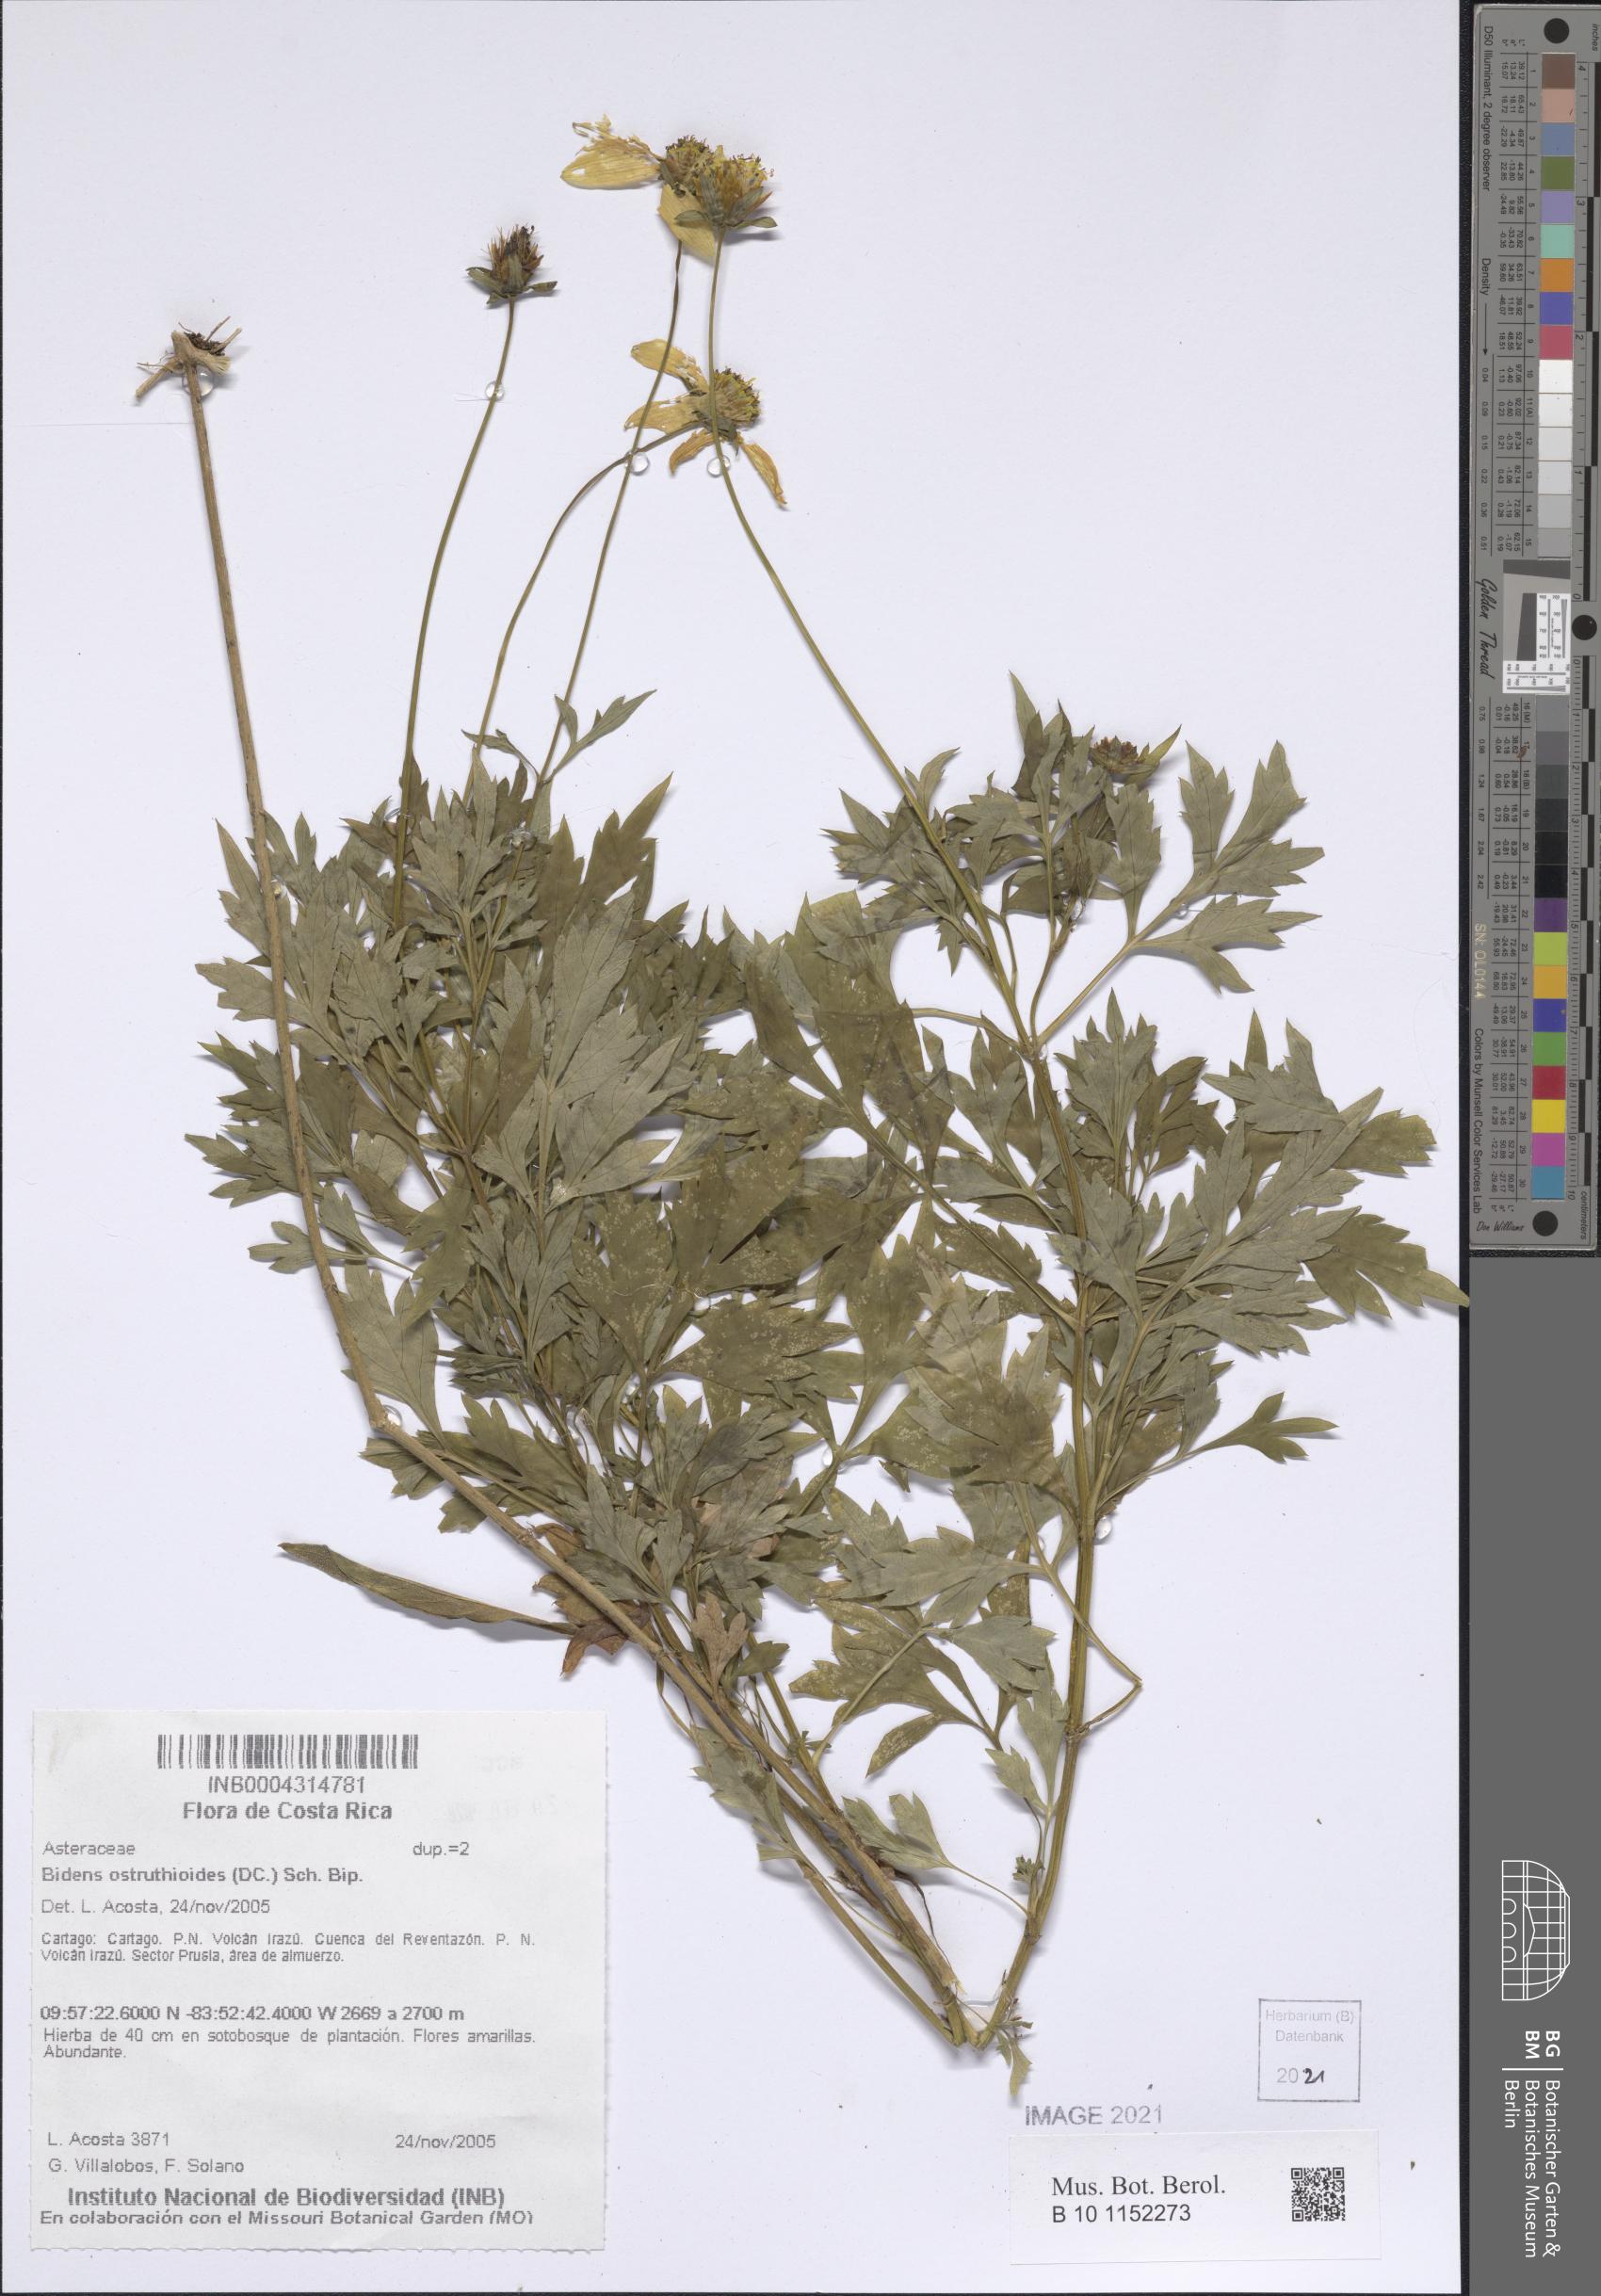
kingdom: Plantae
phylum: Tracheophyta
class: Magnoliopsida
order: Asterales
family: Asteraceae
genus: Bidens
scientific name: Bidens ostruthioides
